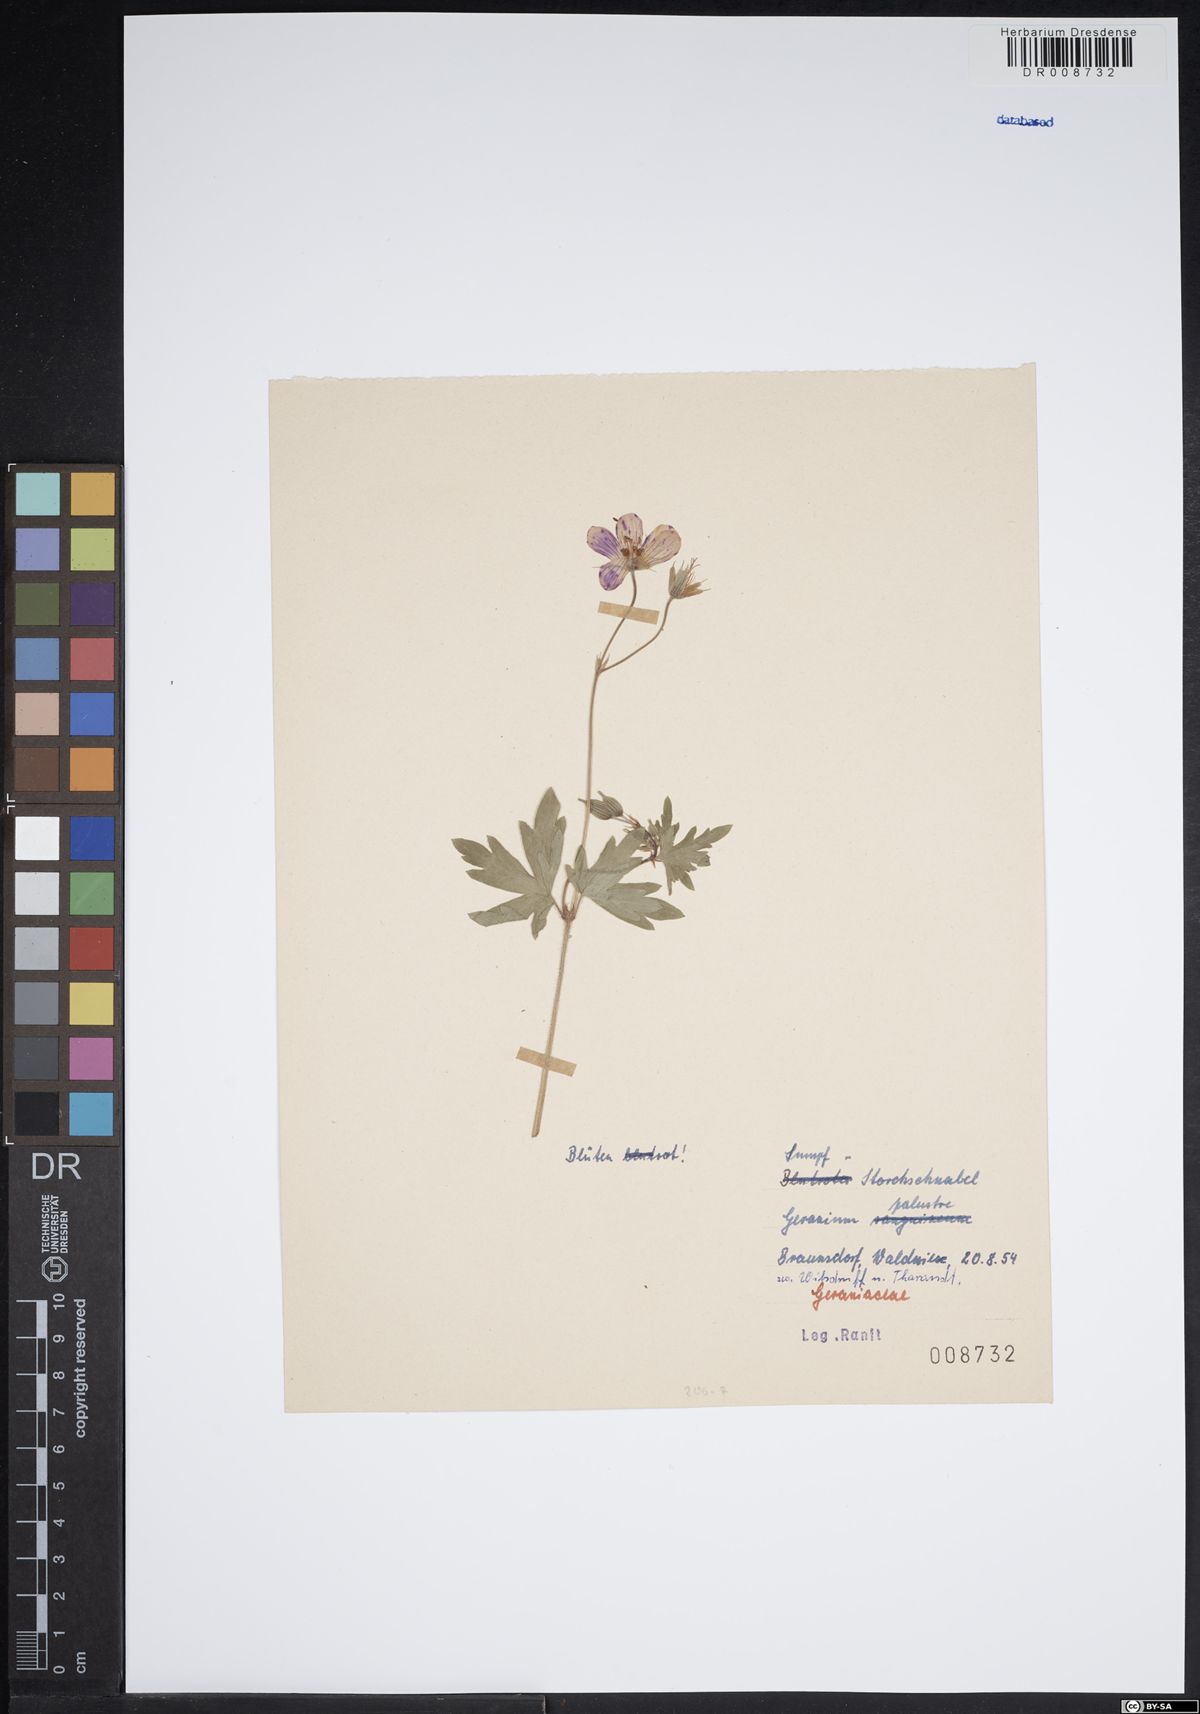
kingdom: Plantae
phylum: Tracheophyta
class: Magnoliopsida
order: Geraniales
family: Geraniaceae
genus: Geranium
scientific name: Geranium palustre
